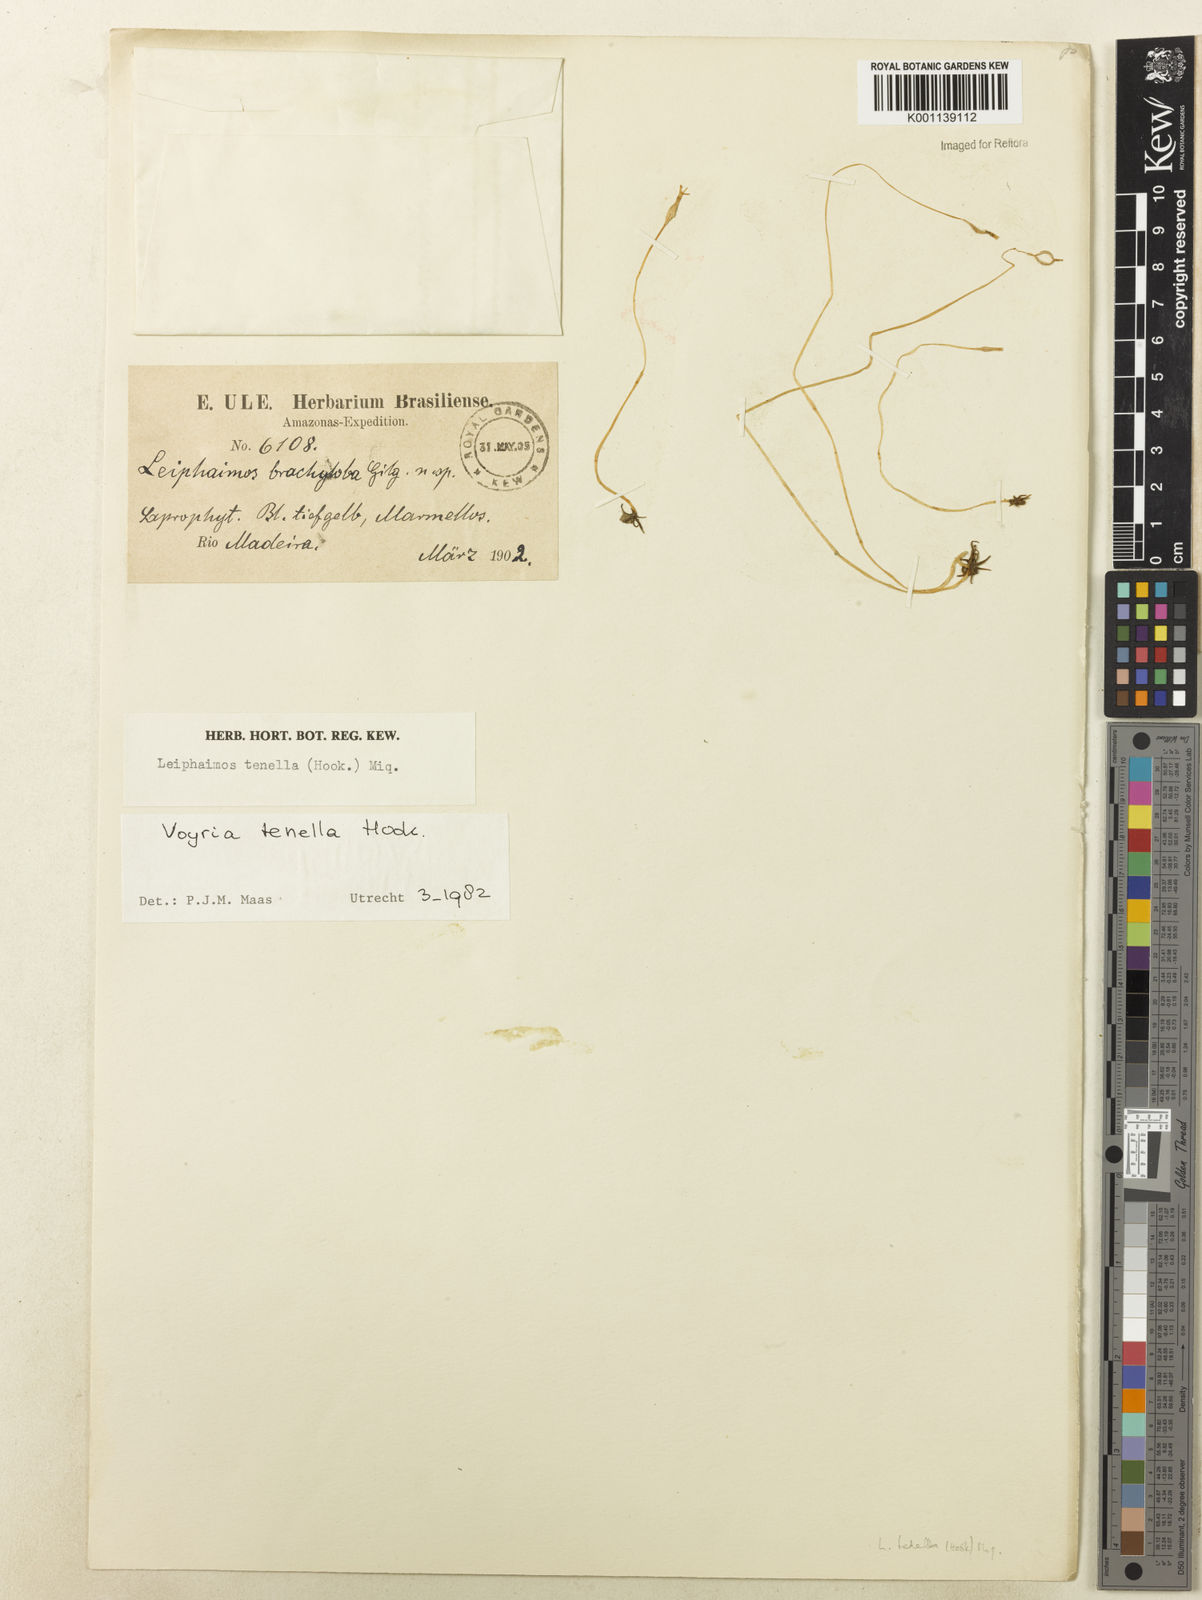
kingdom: Plantae
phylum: Tracheophyta
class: Magnoliopsida
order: Gentianales
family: Gentianaceae
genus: Voyria
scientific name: Voyria tenella
